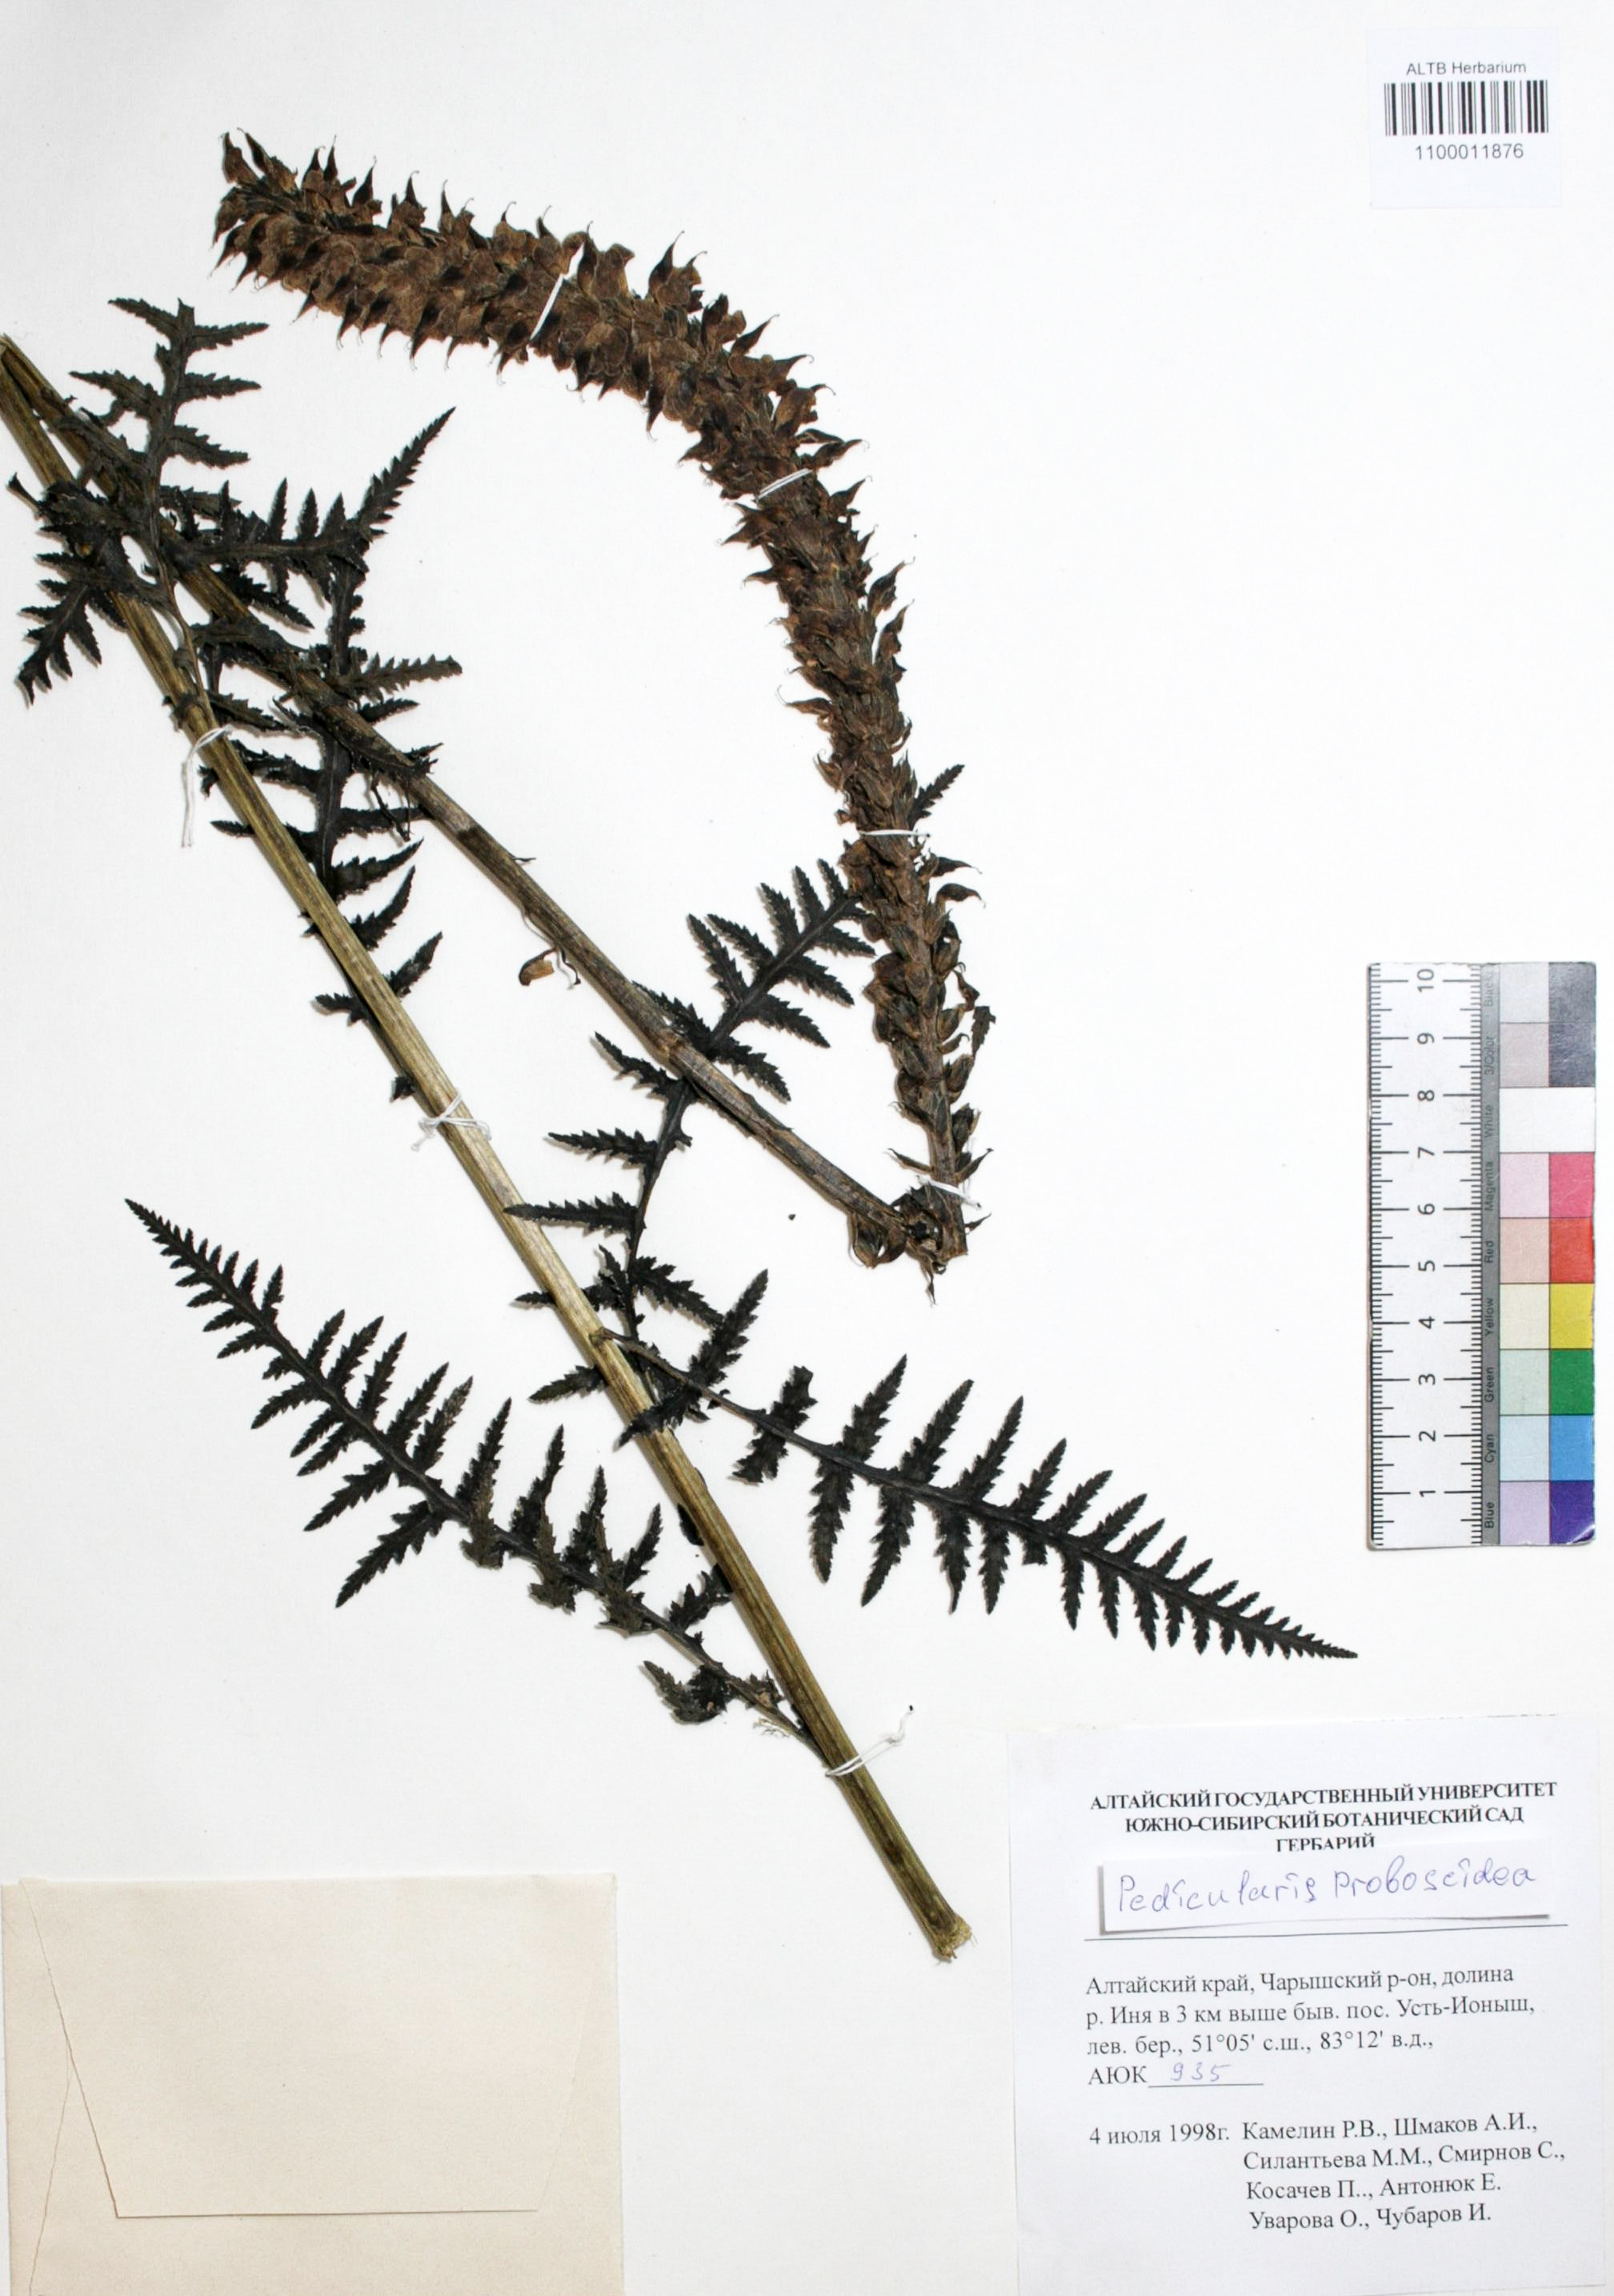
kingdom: Plantae
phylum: Tracheophyta
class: Magnoliopsida
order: Lamiales
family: Orobanchaceae
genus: Pedicularis
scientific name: Pedicularis proboscidea
